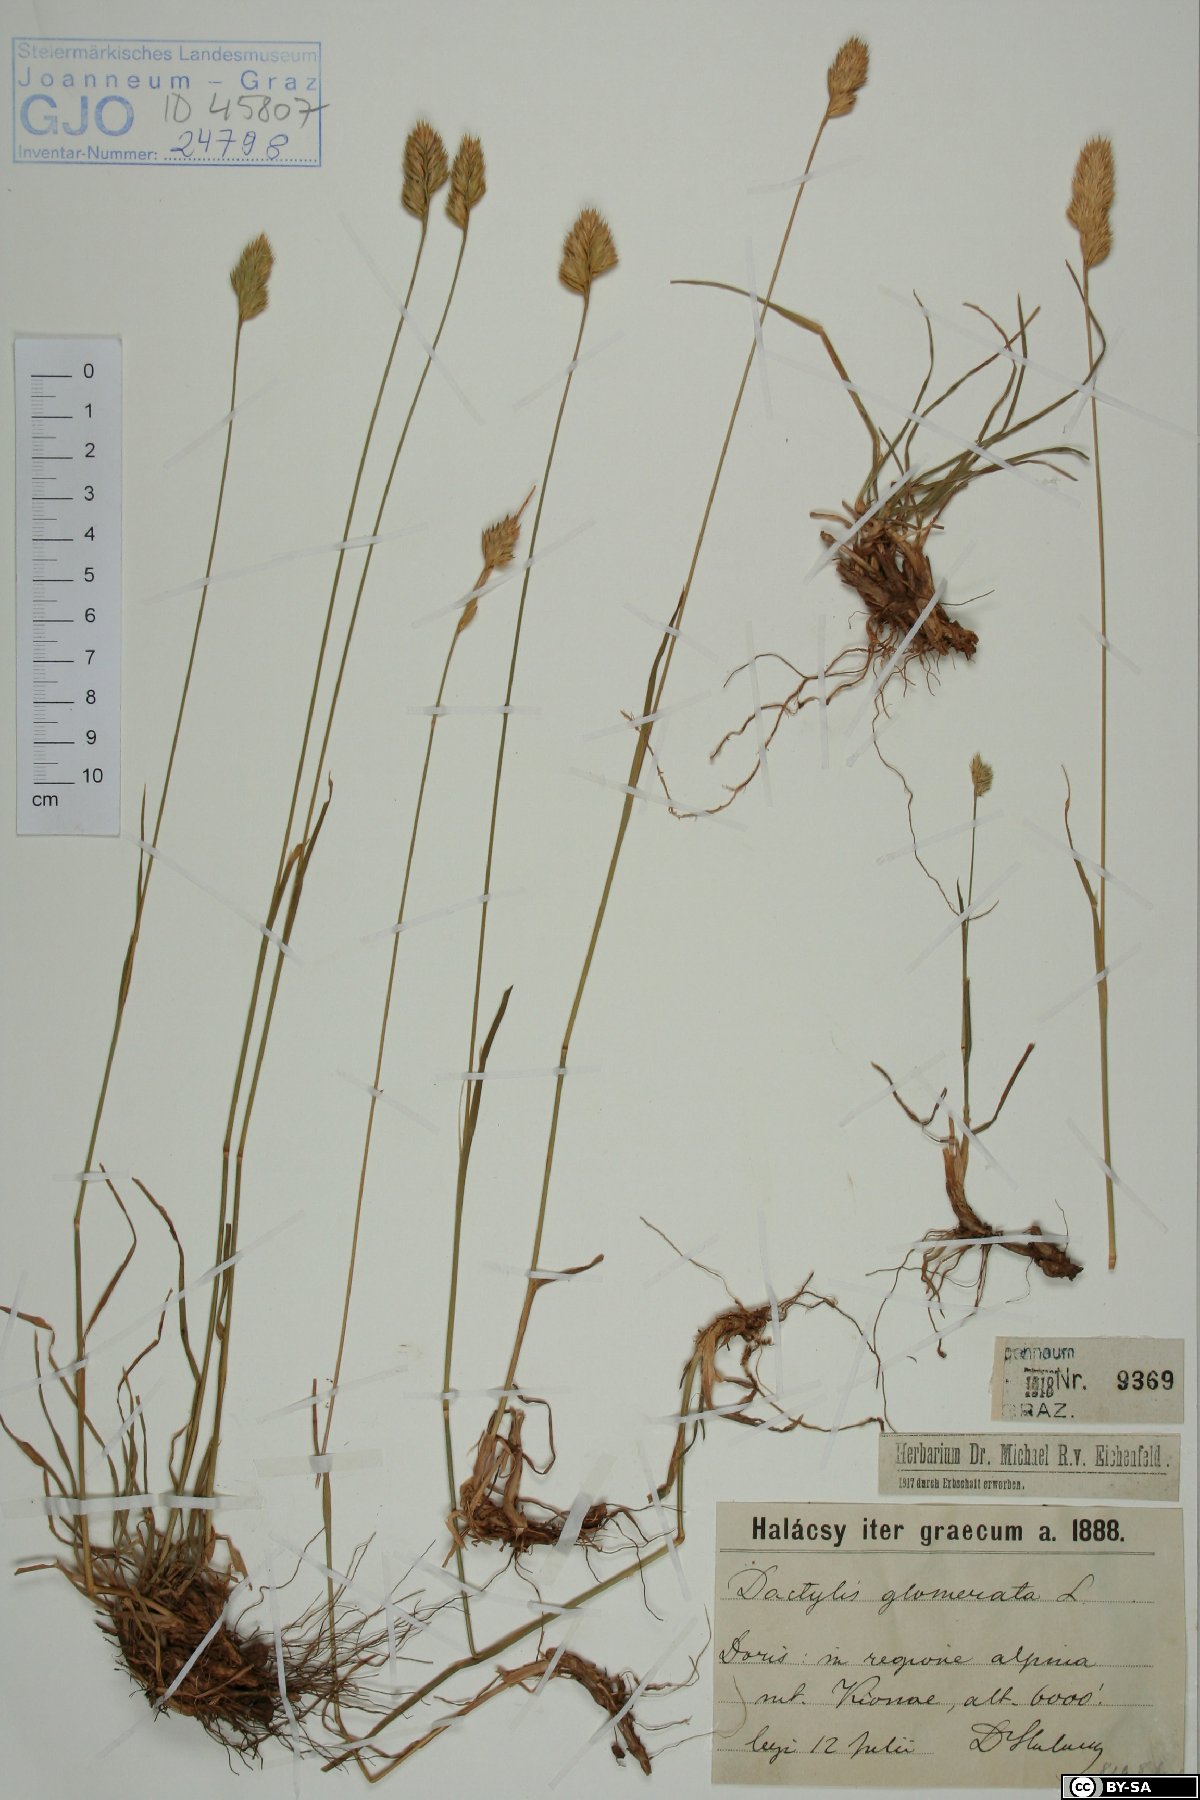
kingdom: Plantae
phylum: Tracheophyta
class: Liliopsida
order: Poales
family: Poaceae
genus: Dactylis
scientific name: Dactylis glomerata
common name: Orchardgrass
